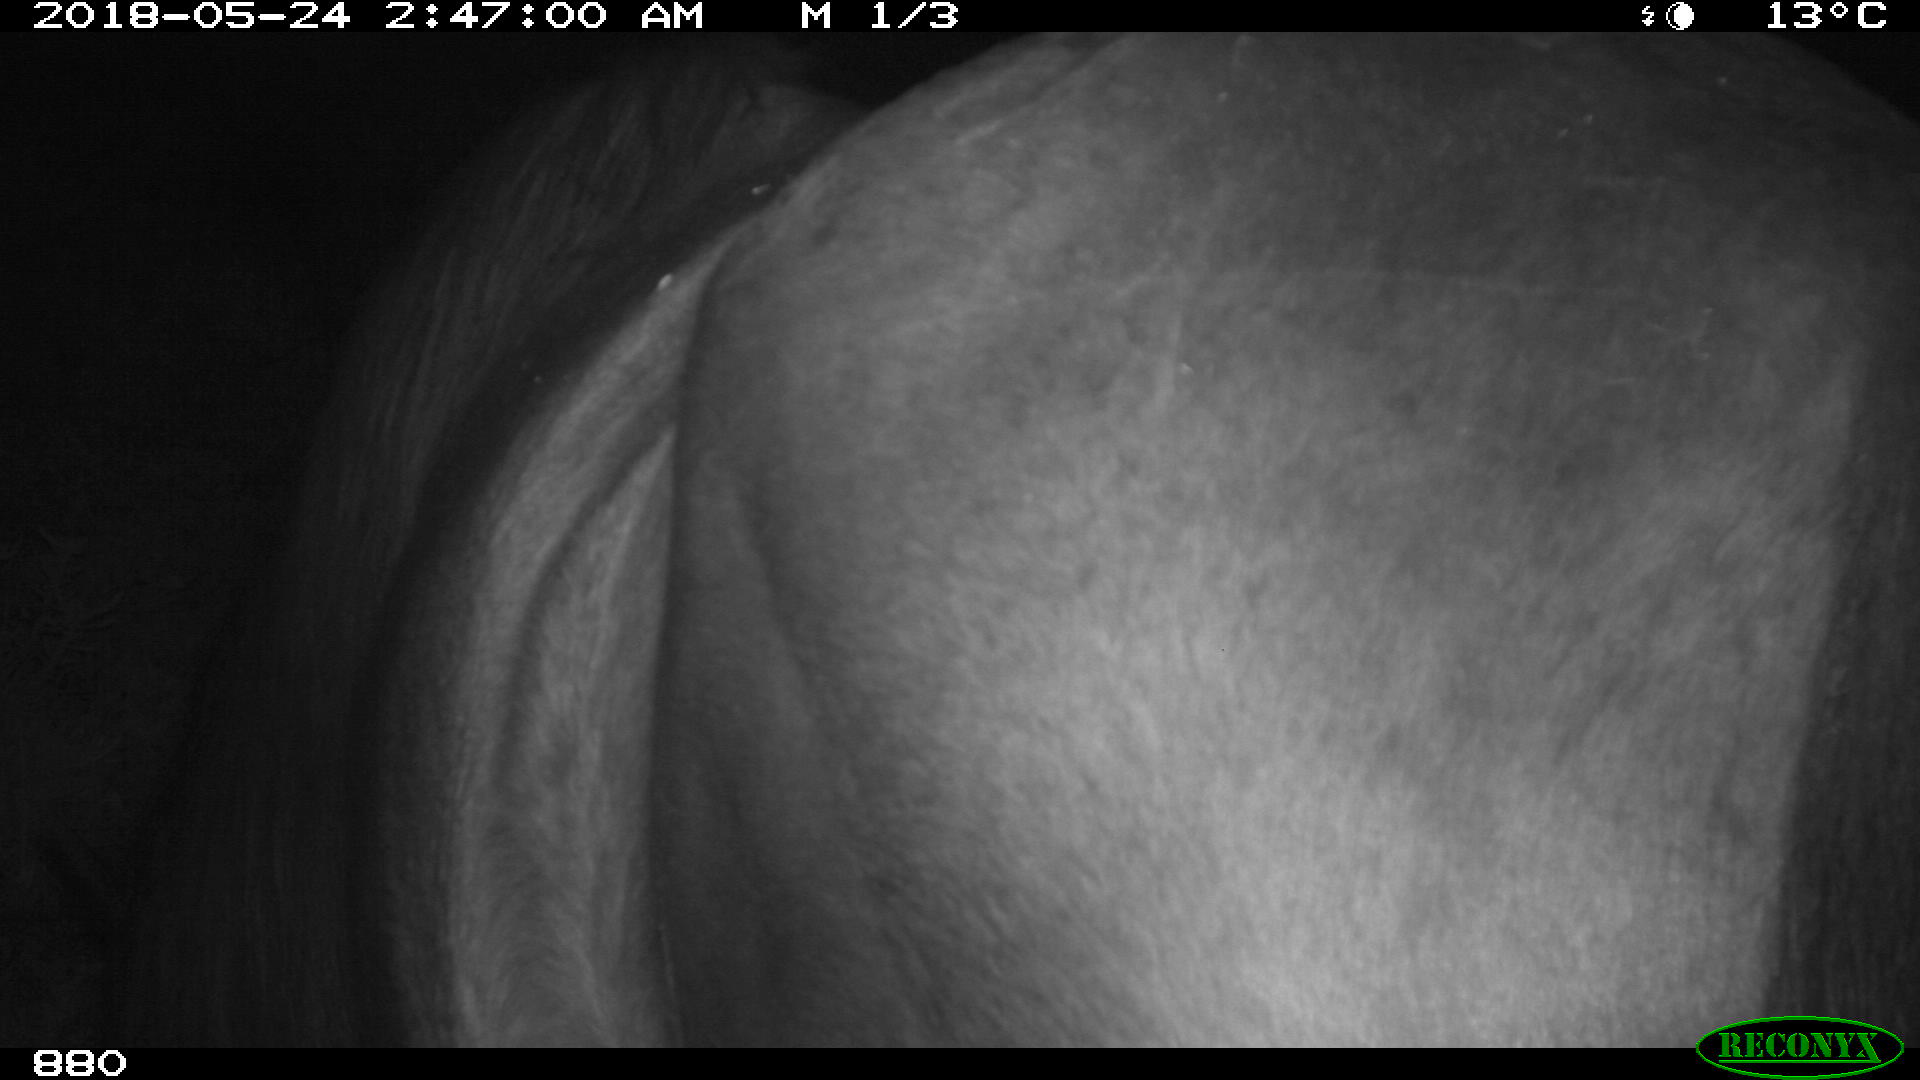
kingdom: Animalia
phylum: Chordata
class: Mammalia
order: Perissodactyla
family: Equidae
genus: Equus
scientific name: Equus caballus
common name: Horse
